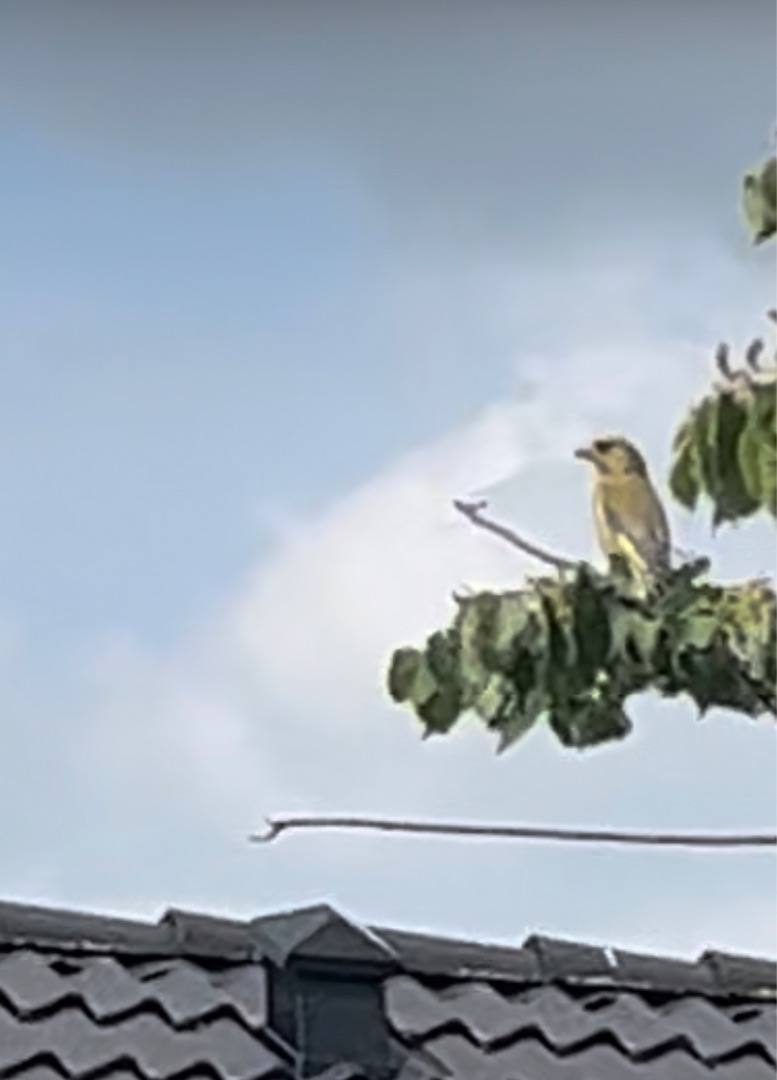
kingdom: Plantae
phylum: Tracheophyta
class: Liliopsida
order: Poales
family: Poaceae
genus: Chloris
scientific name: Chloris chloris
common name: Grønirisk
